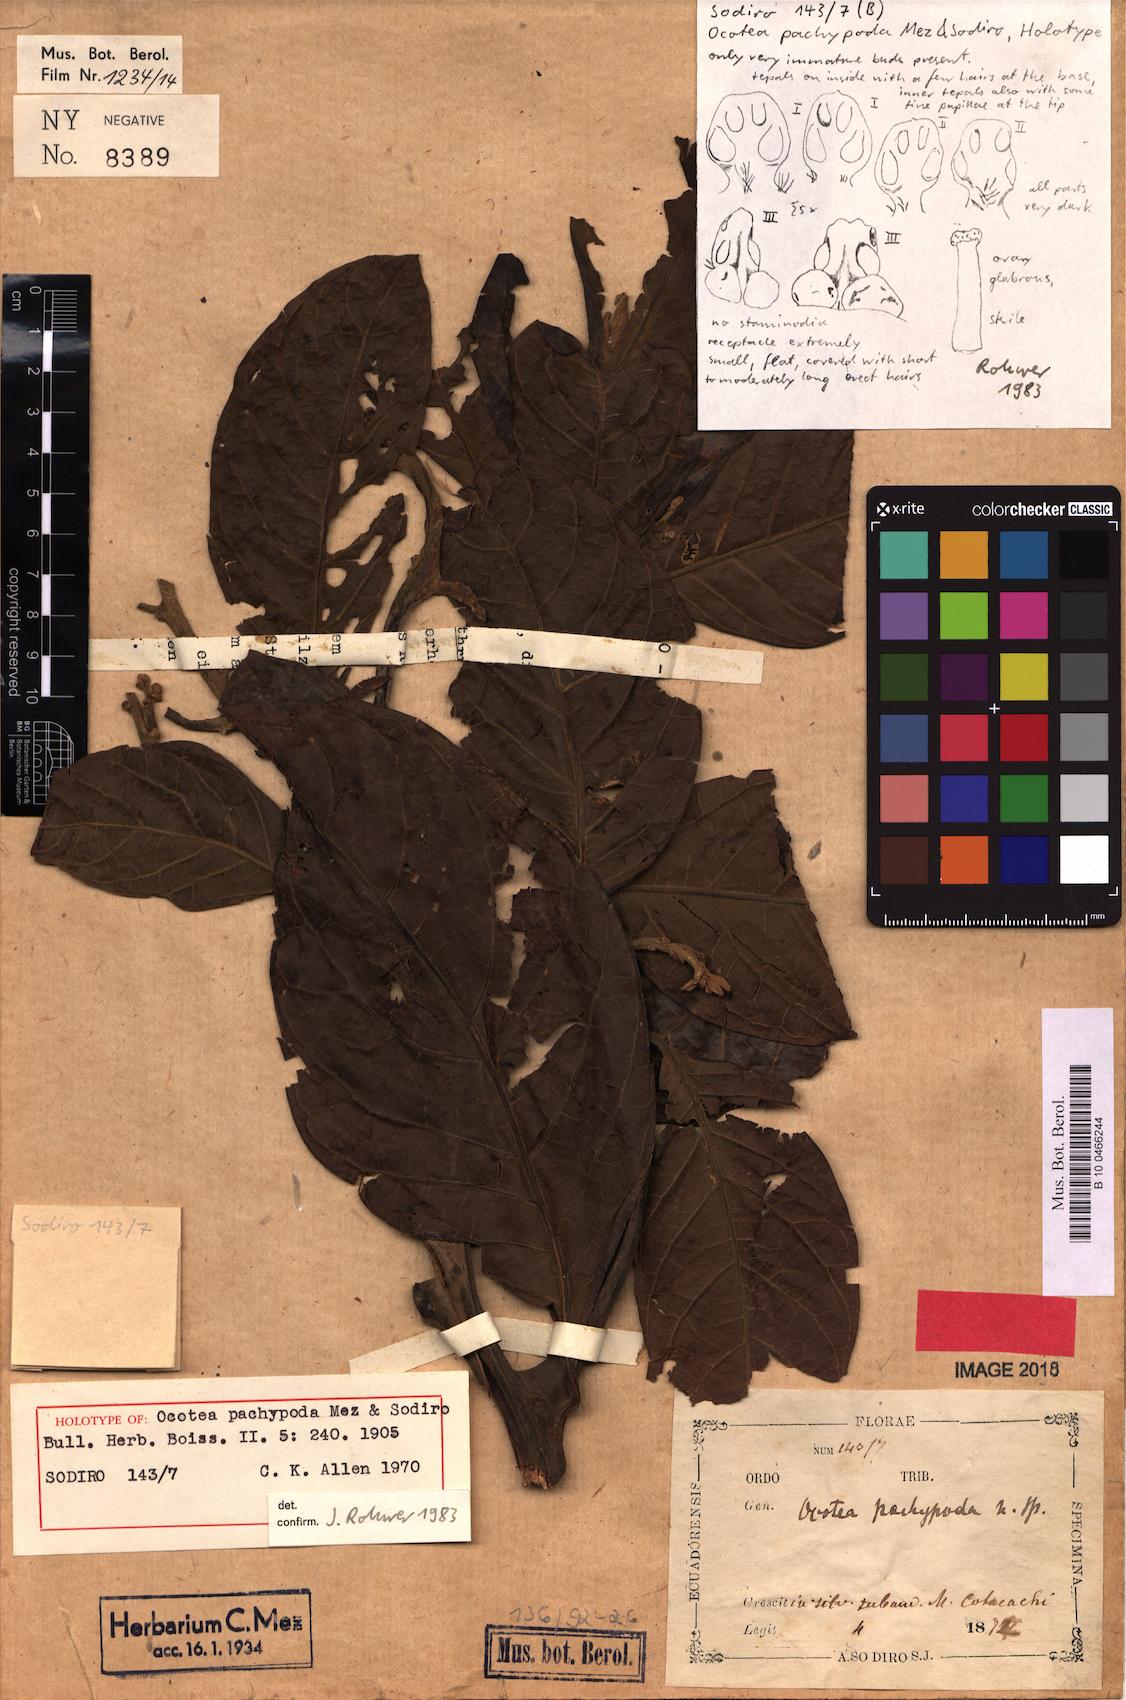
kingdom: Plantae
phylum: Tracheophyta
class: Magnoliopsida
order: Laurales
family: Lauraceae
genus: Ocotea
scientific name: Ocotea pachypoda
